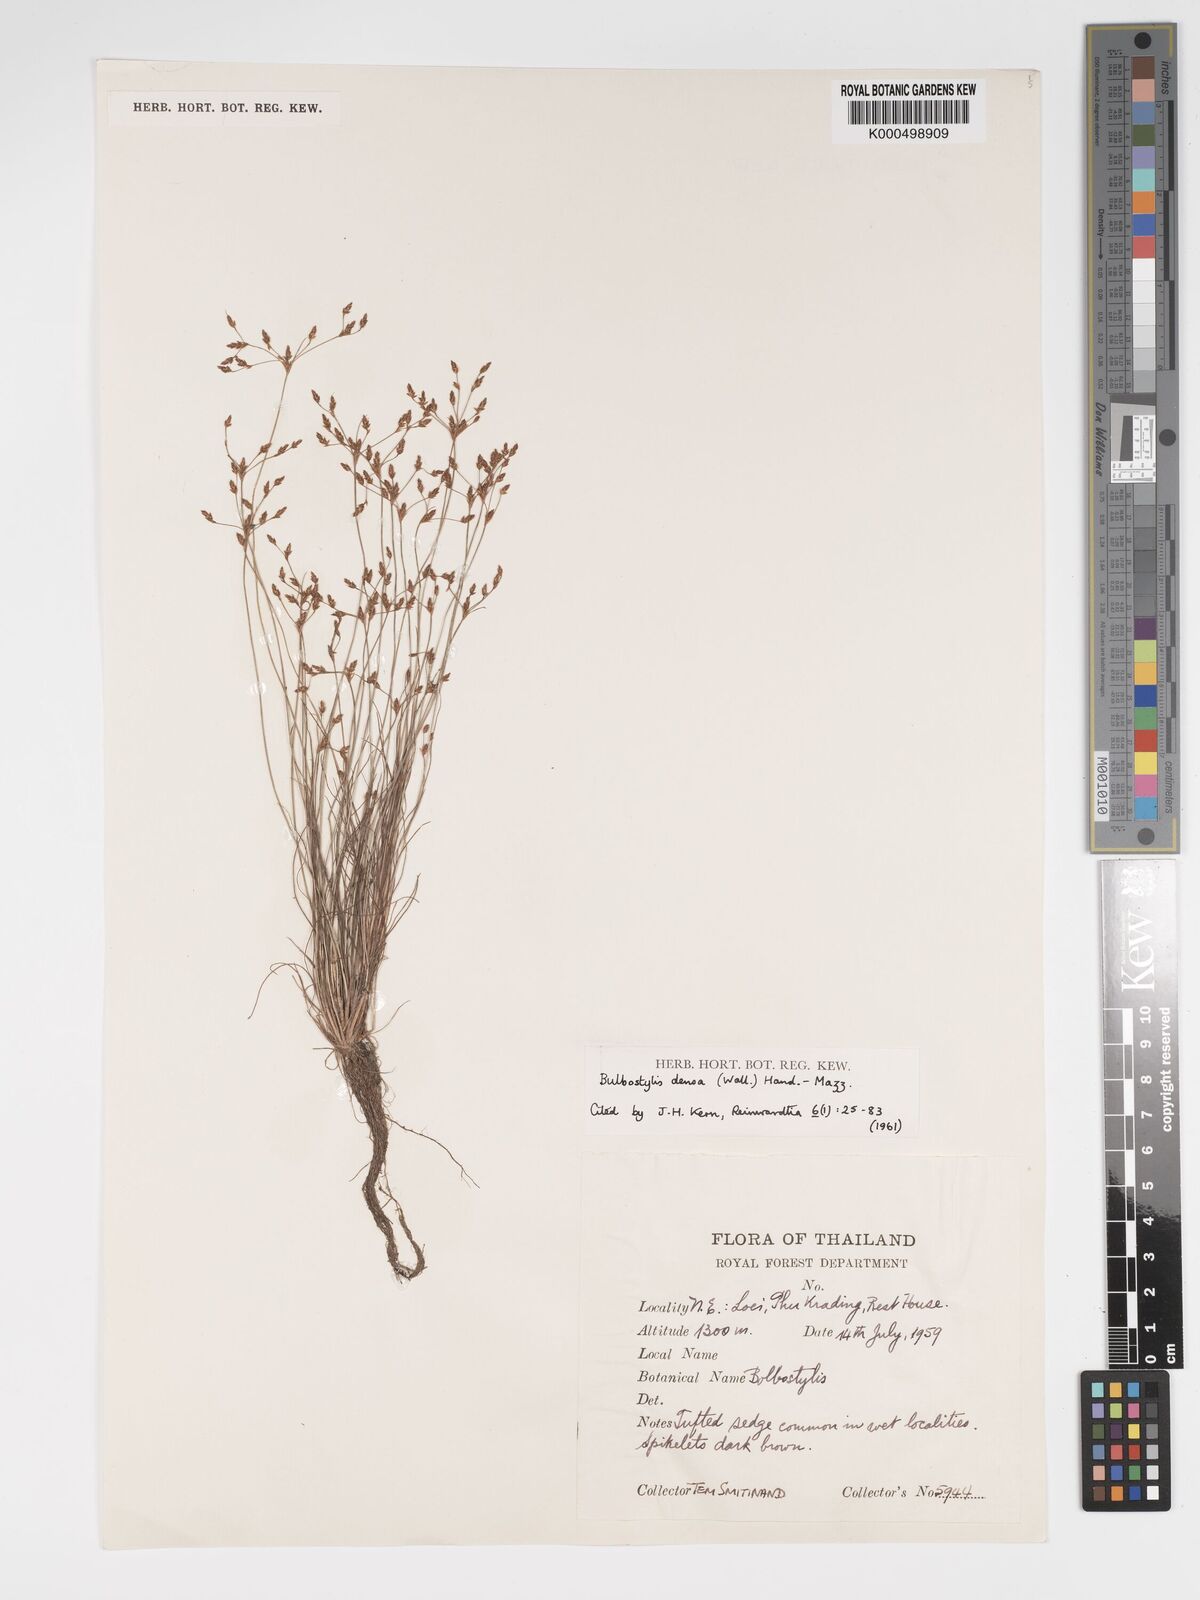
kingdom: Plantae
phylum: Tracheophyta
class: Liliopsida
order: Poales
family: Cyperaceae
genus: Bulbostylis
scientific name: Bulbostylis densa
